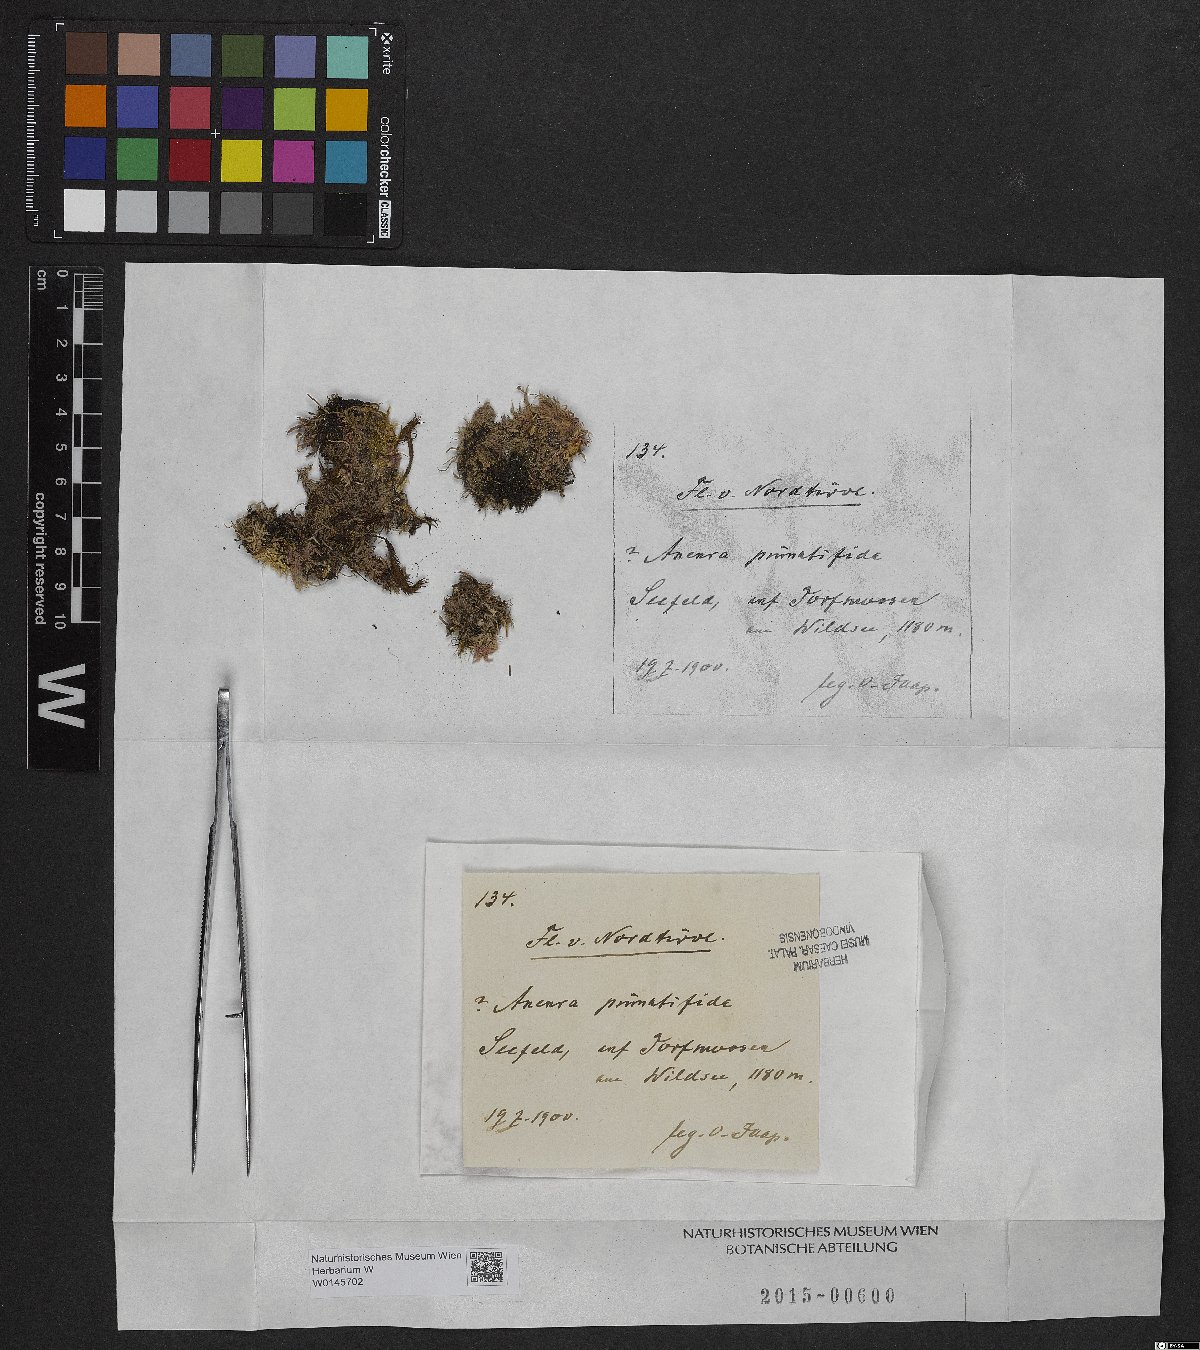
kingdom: Plantae
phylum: Marchantiophyta
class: Jungermanniopsida
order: Metzgeriales
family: Aneuraceae
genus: Riccardia
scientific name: Riccardia chamedryfolia
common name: Jagged germanderwort
